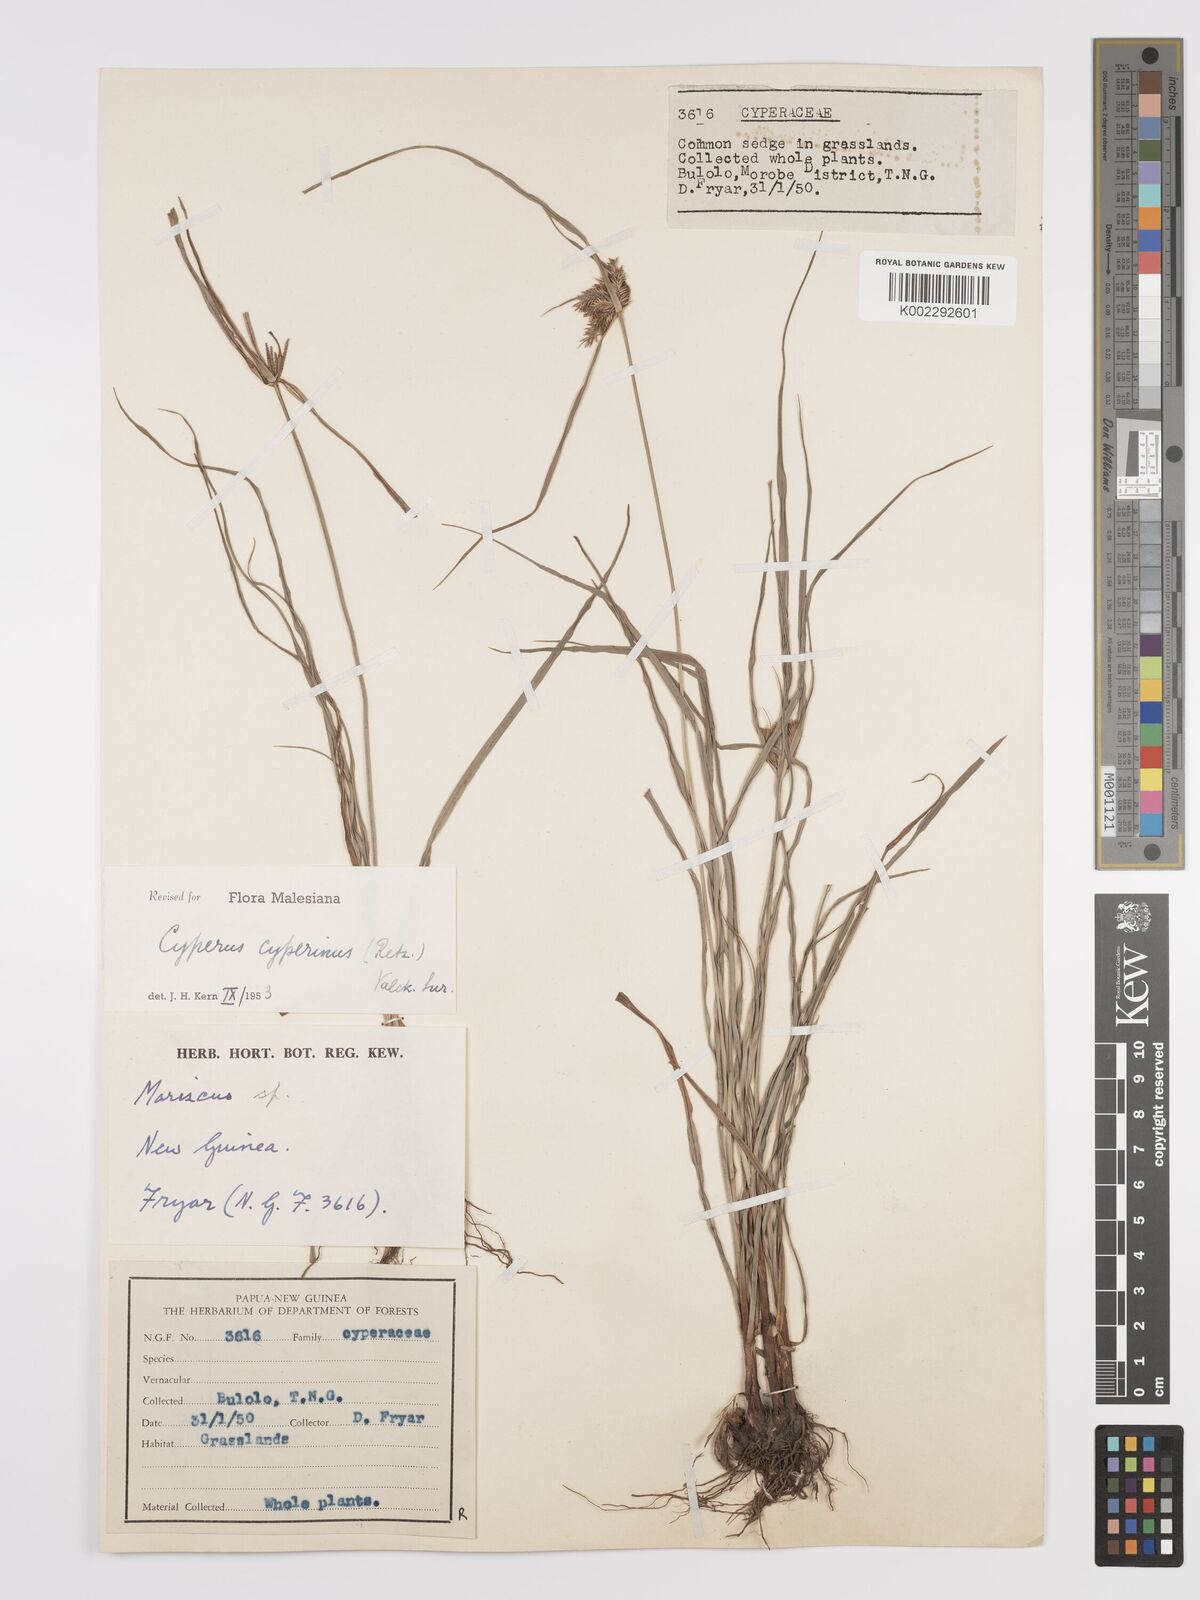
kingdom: Plantae
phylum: Tracheophyta
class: Liliopsida
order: Poales
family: Cyperaceae
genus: Cyperus
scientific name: Cyperus cyperinus
